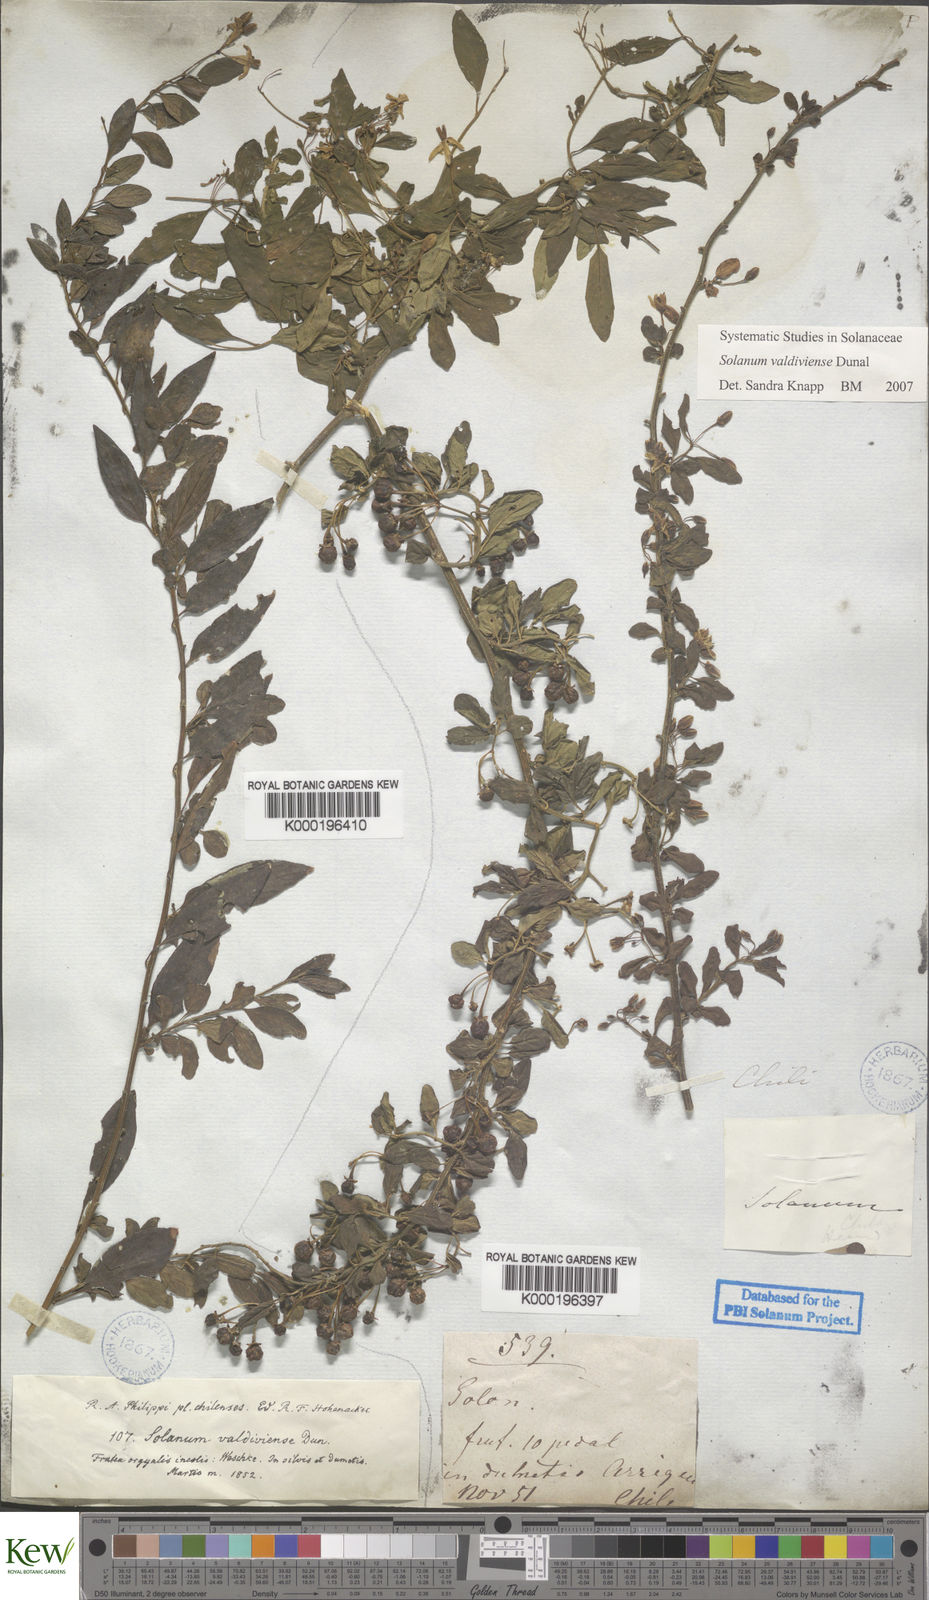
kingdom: Plantae
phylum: Tracheophyta
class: Magnoliopsida
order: Solanales
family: Solanaceae
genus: Solanum
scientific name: Solanum valdiviense
